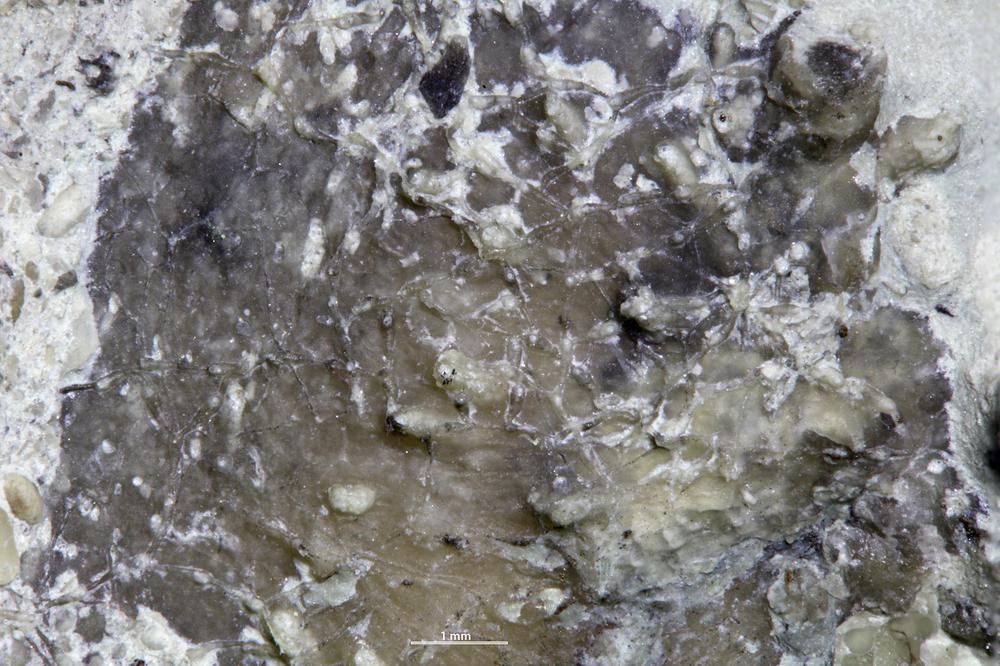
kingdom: Animalia
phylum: Bryozoa
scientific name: Bryozoa
